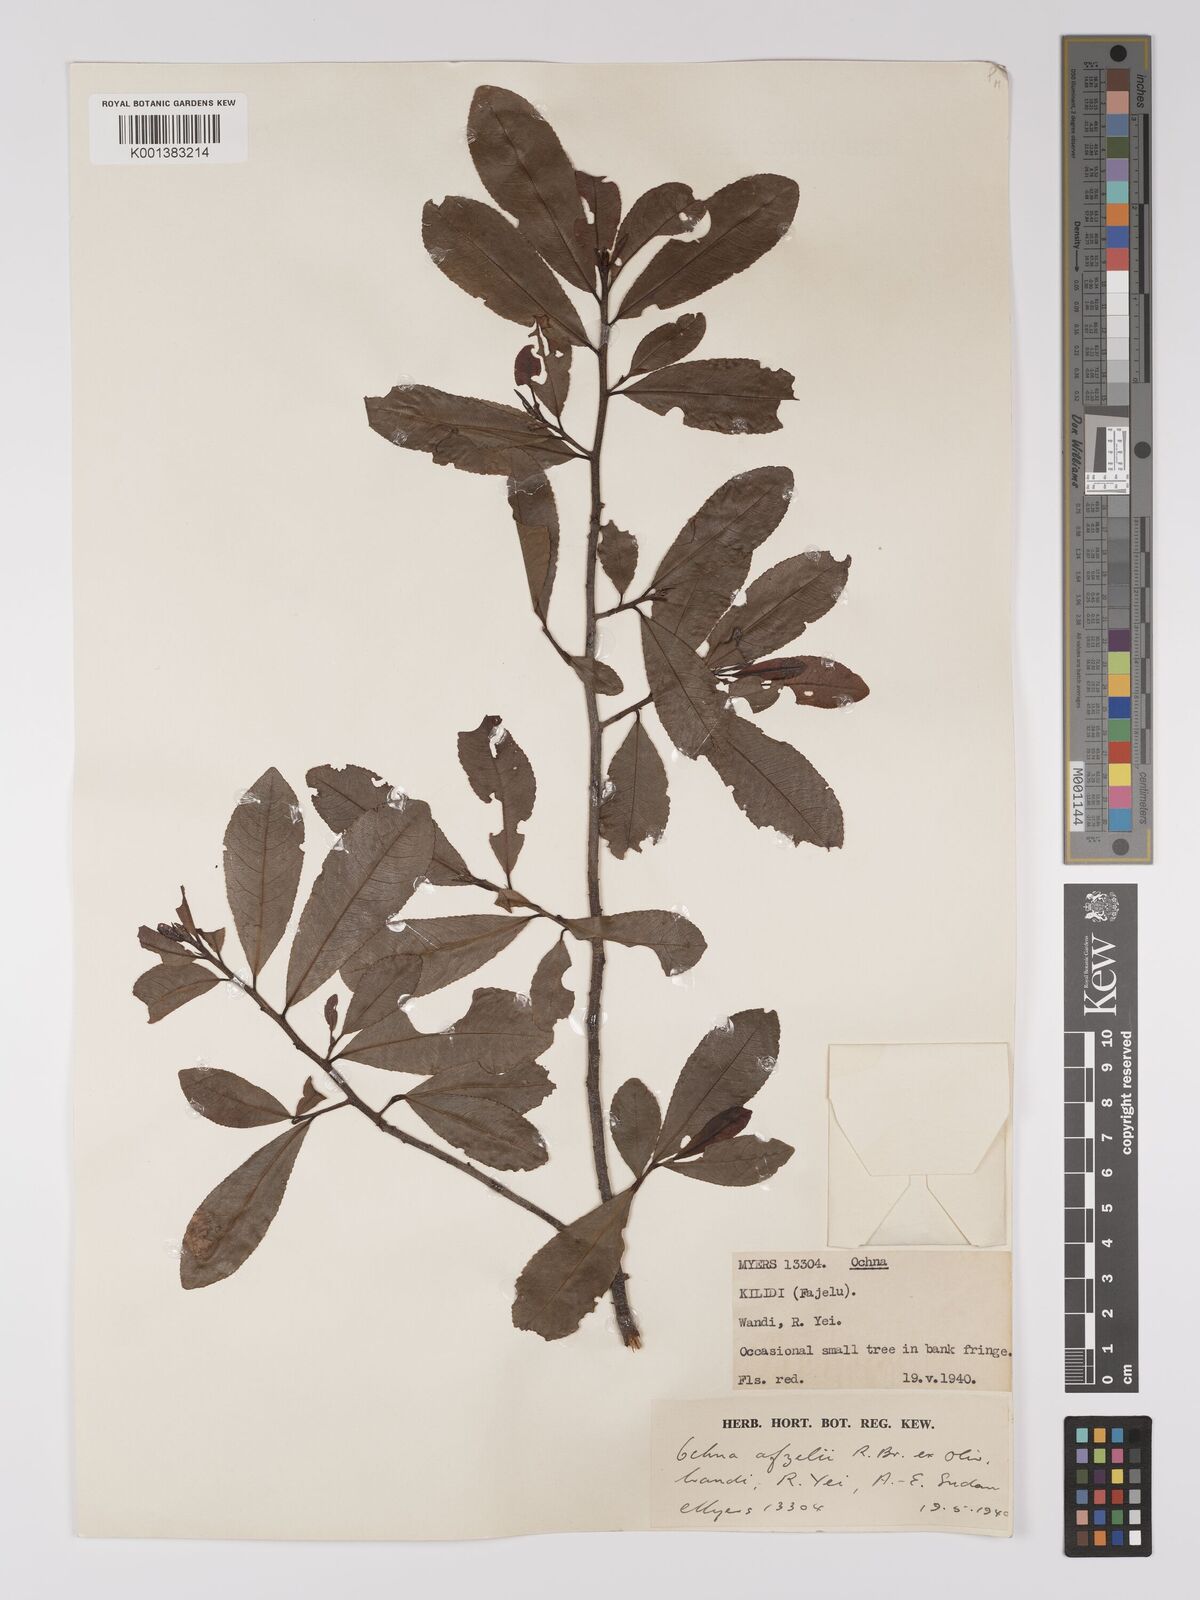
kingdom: Plantae
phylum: Tracheophyta
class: Magnoliopsida
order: Malpighiales
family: Ochnaceae
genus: Ochna
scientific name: Ochna afzelii
